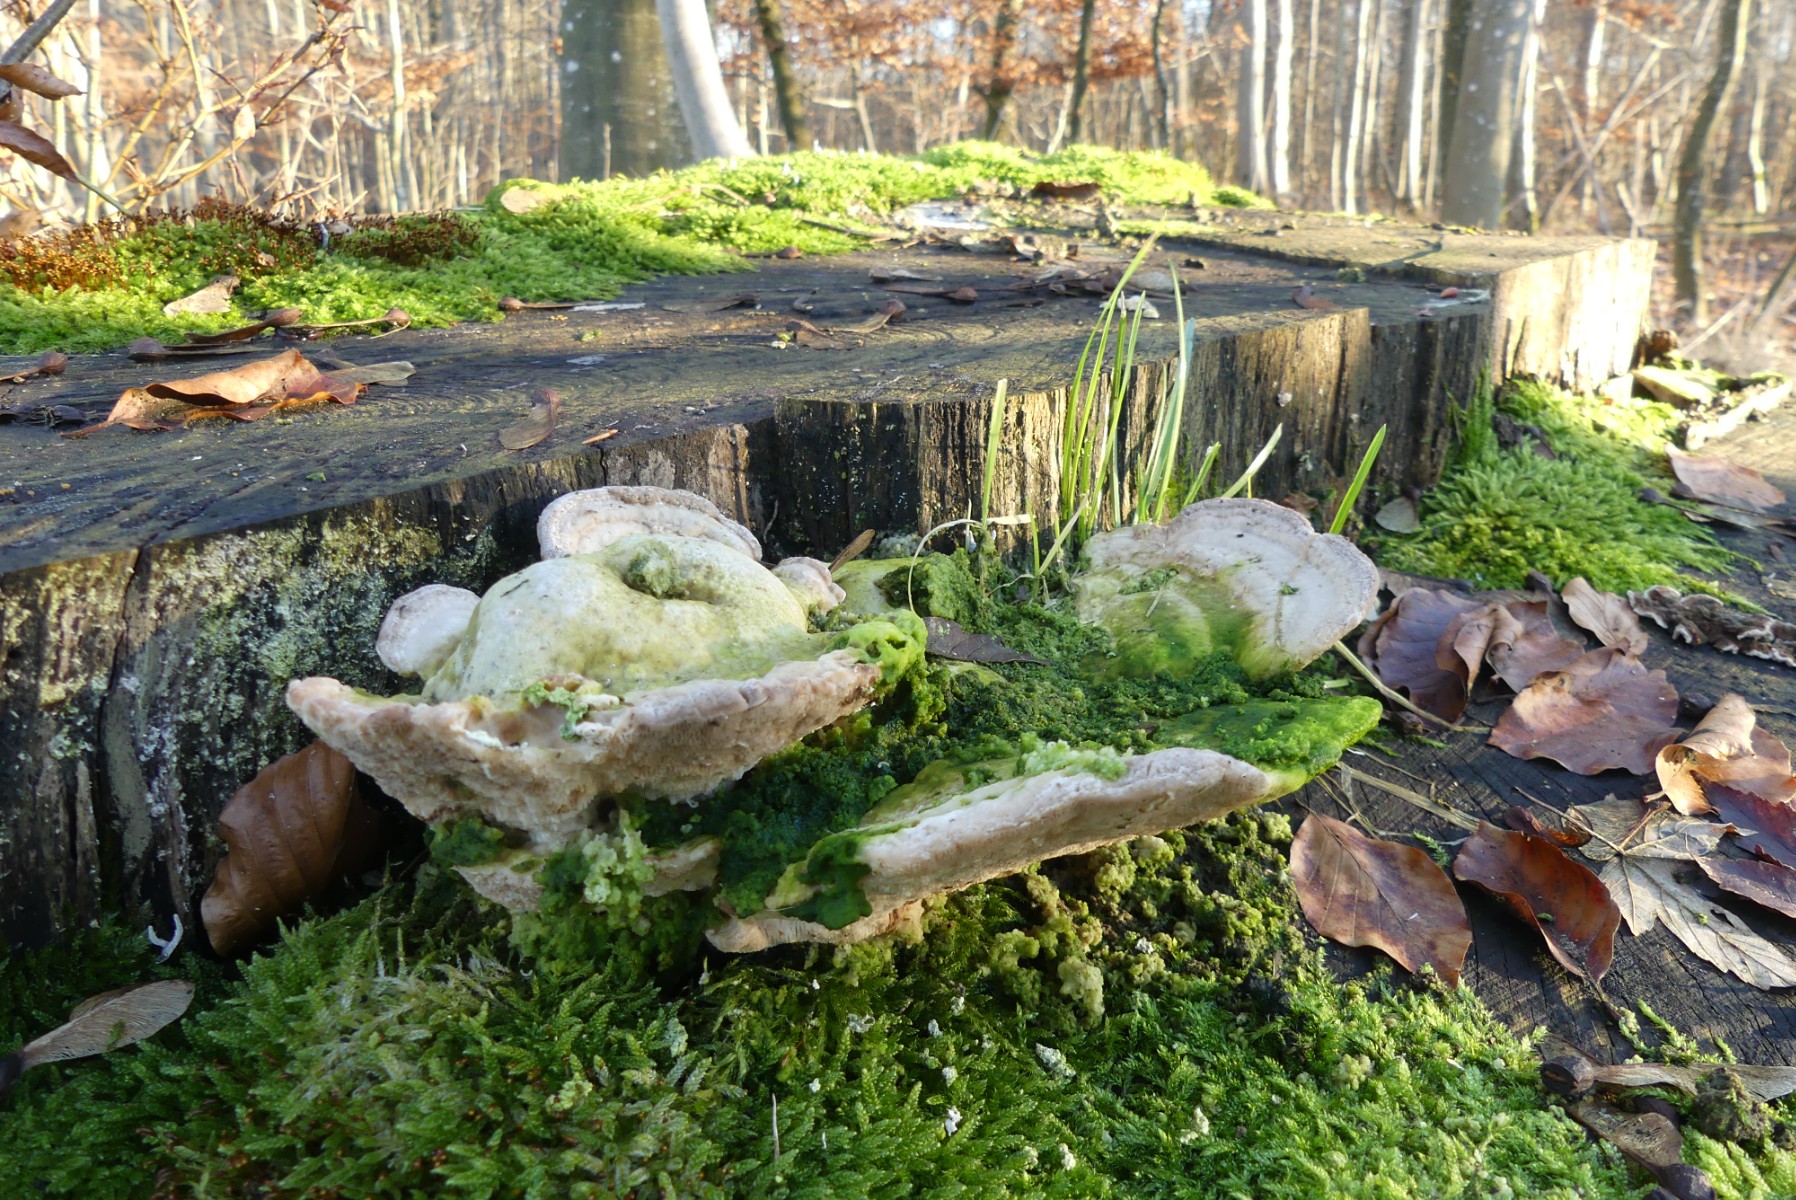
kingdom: Fungi
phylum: Basidiomycota
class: Agaricomycetes
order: Polyporales
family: Polyporaceae
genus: Trametes
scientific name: Trametes gibbosa
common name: puklet læderporesvamp
